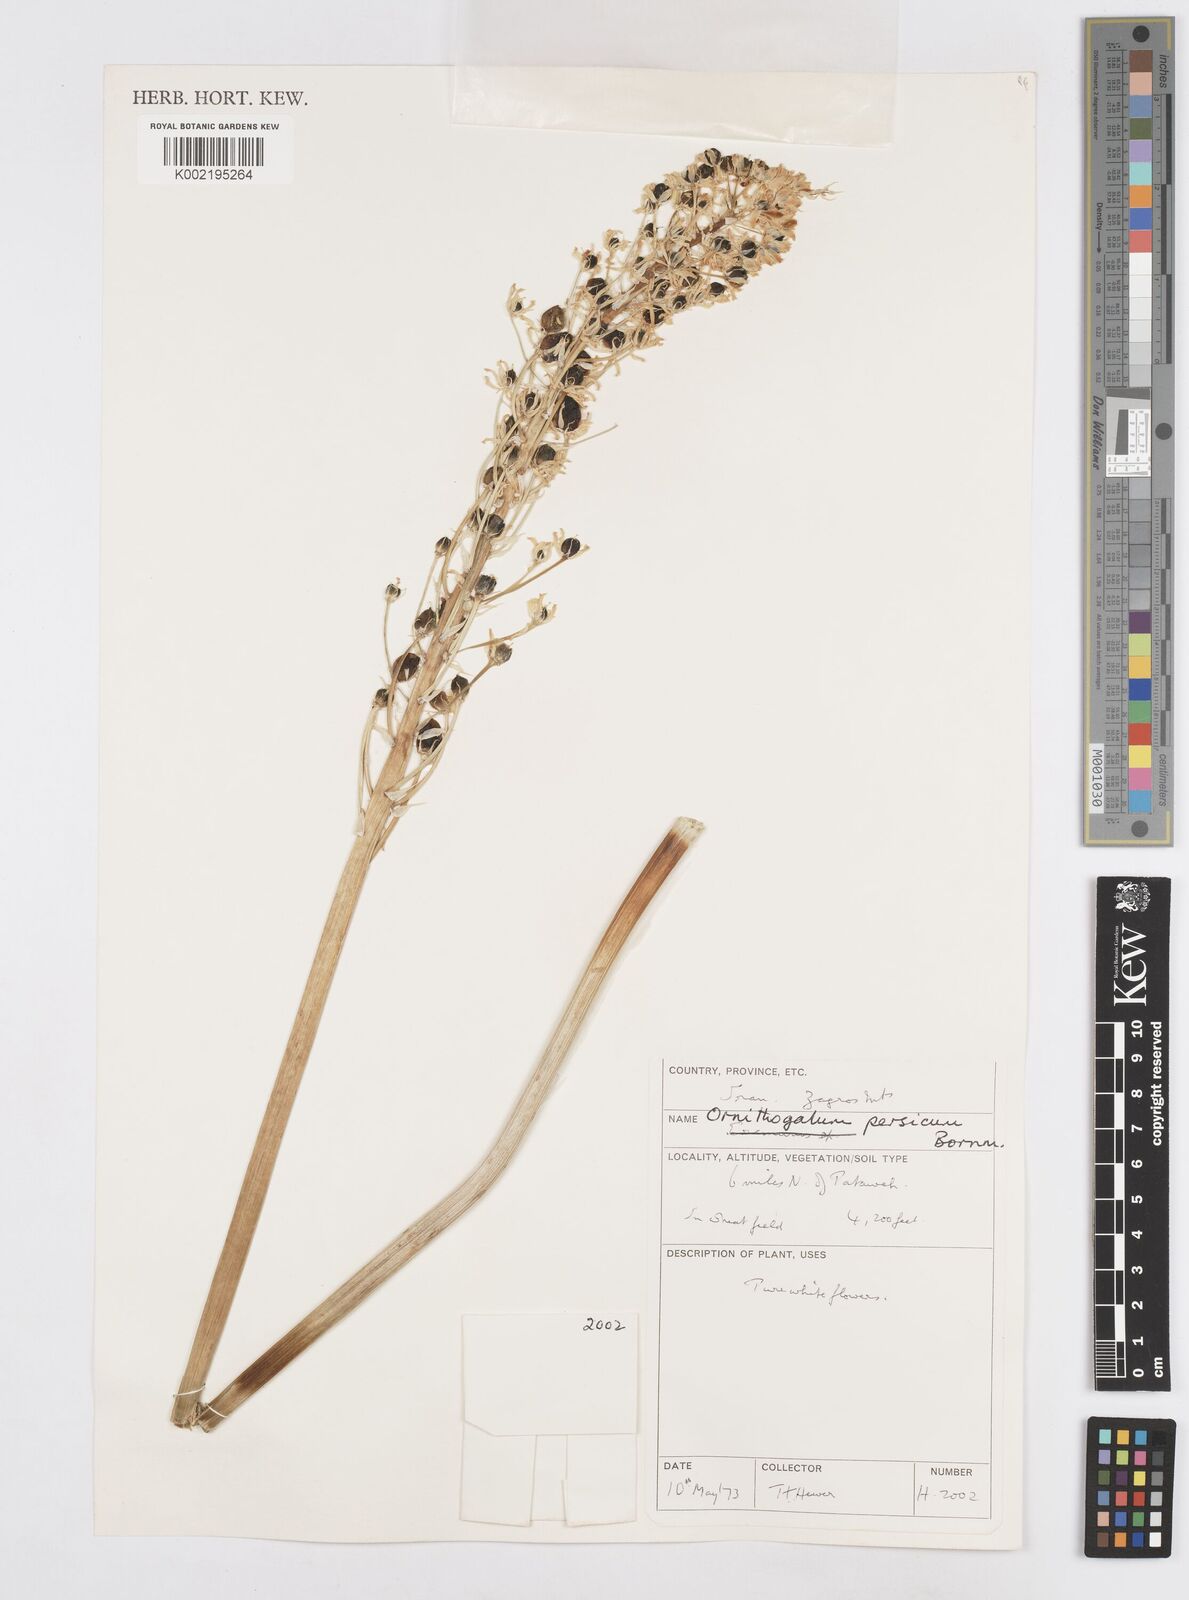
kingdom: Plantae
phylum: Tracheophyta
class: Liliopsida
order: Asparagales
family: Asparagaceae
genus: Ornithogalum
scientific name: Ornithogalum persicum
